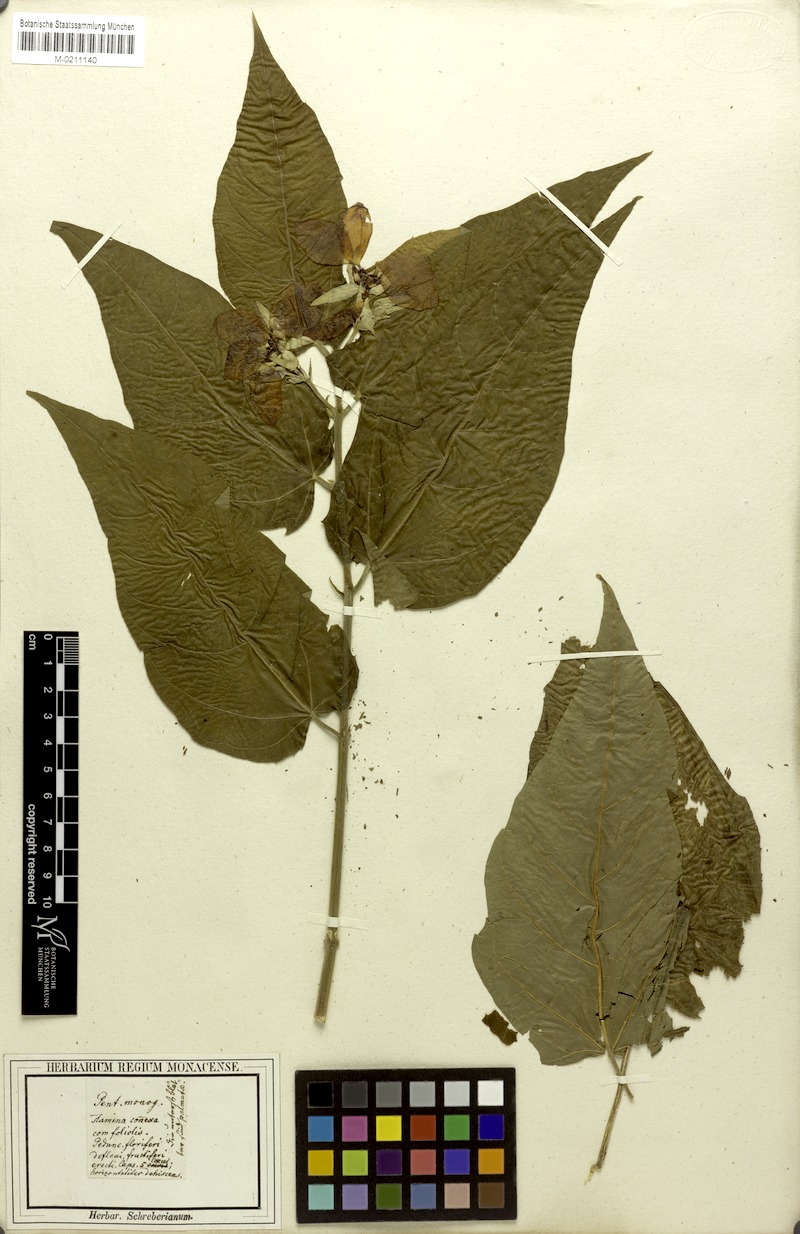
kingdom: Plantae
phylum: Tracheophyta
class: Magnoliopsida
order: Malvales
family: Malvaceae
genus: Abroma
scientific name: Abroma augustum
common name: Devil's-cotton
